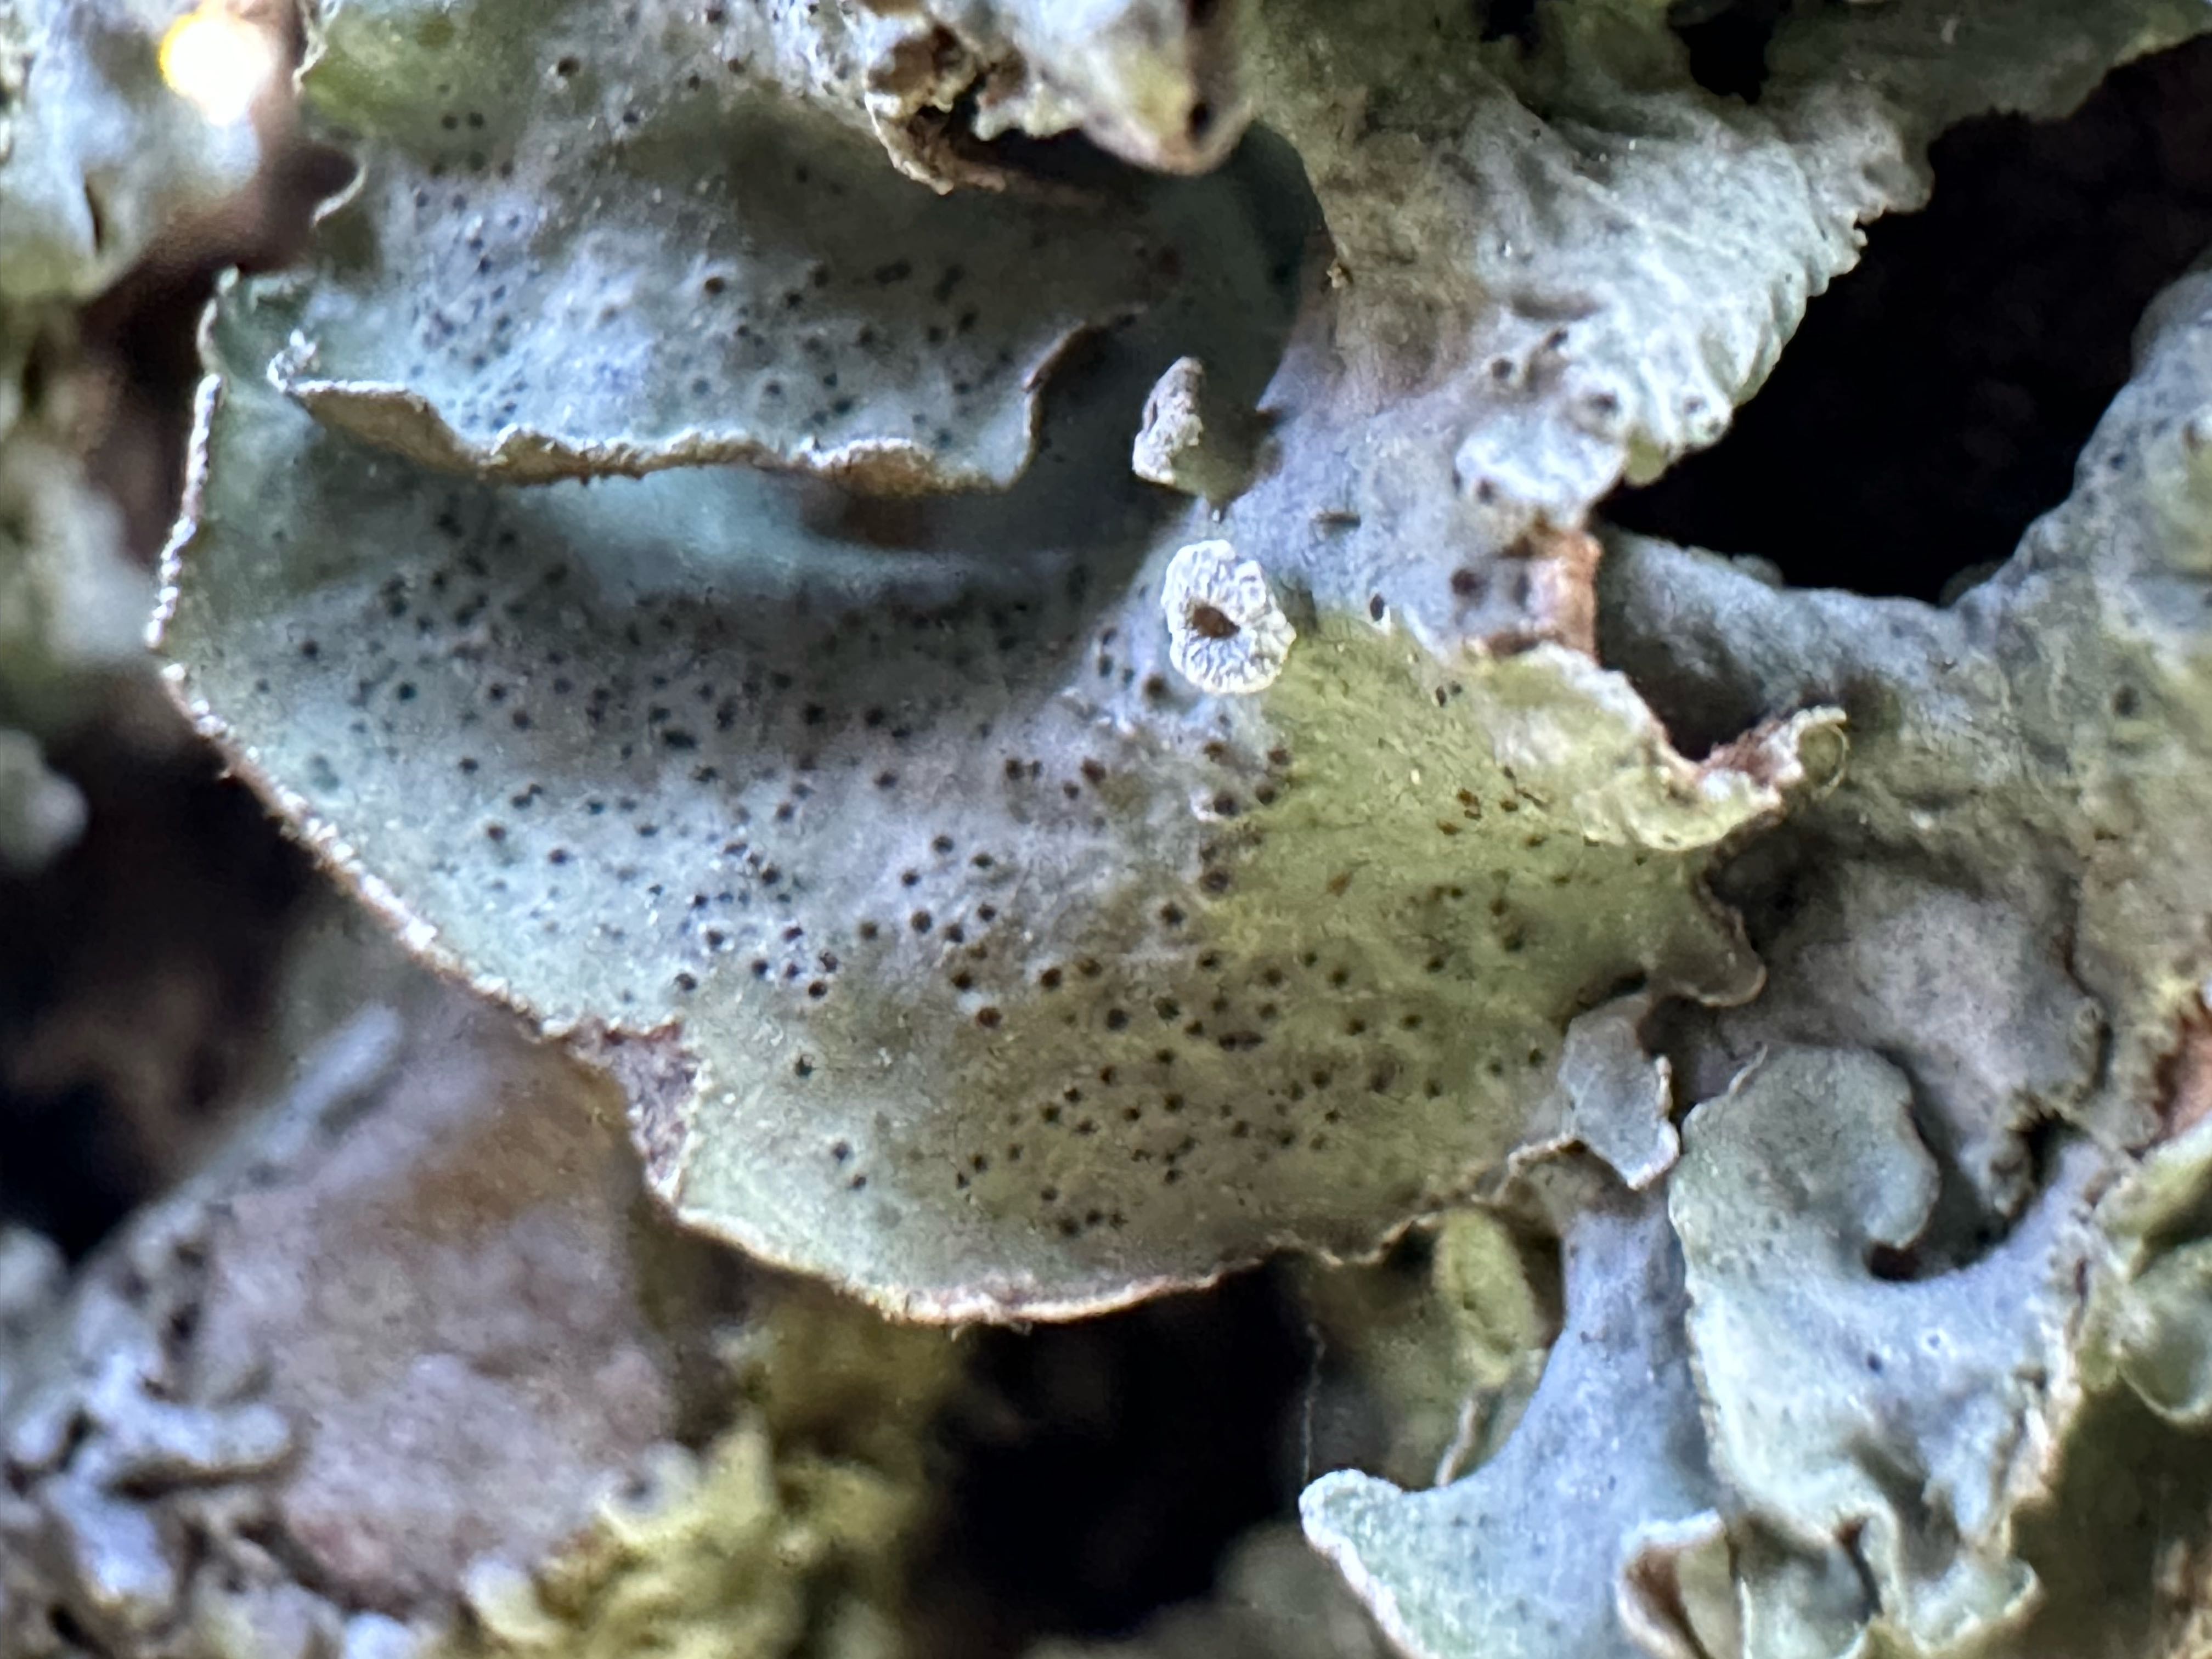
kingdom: Fungi
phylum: Ascomycota
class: Lecanoromycetes
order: Lecanorales
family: Parmeliaceae
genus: Pleurosticta
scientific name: Pleurosticta acetabulum
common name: stor skållav
